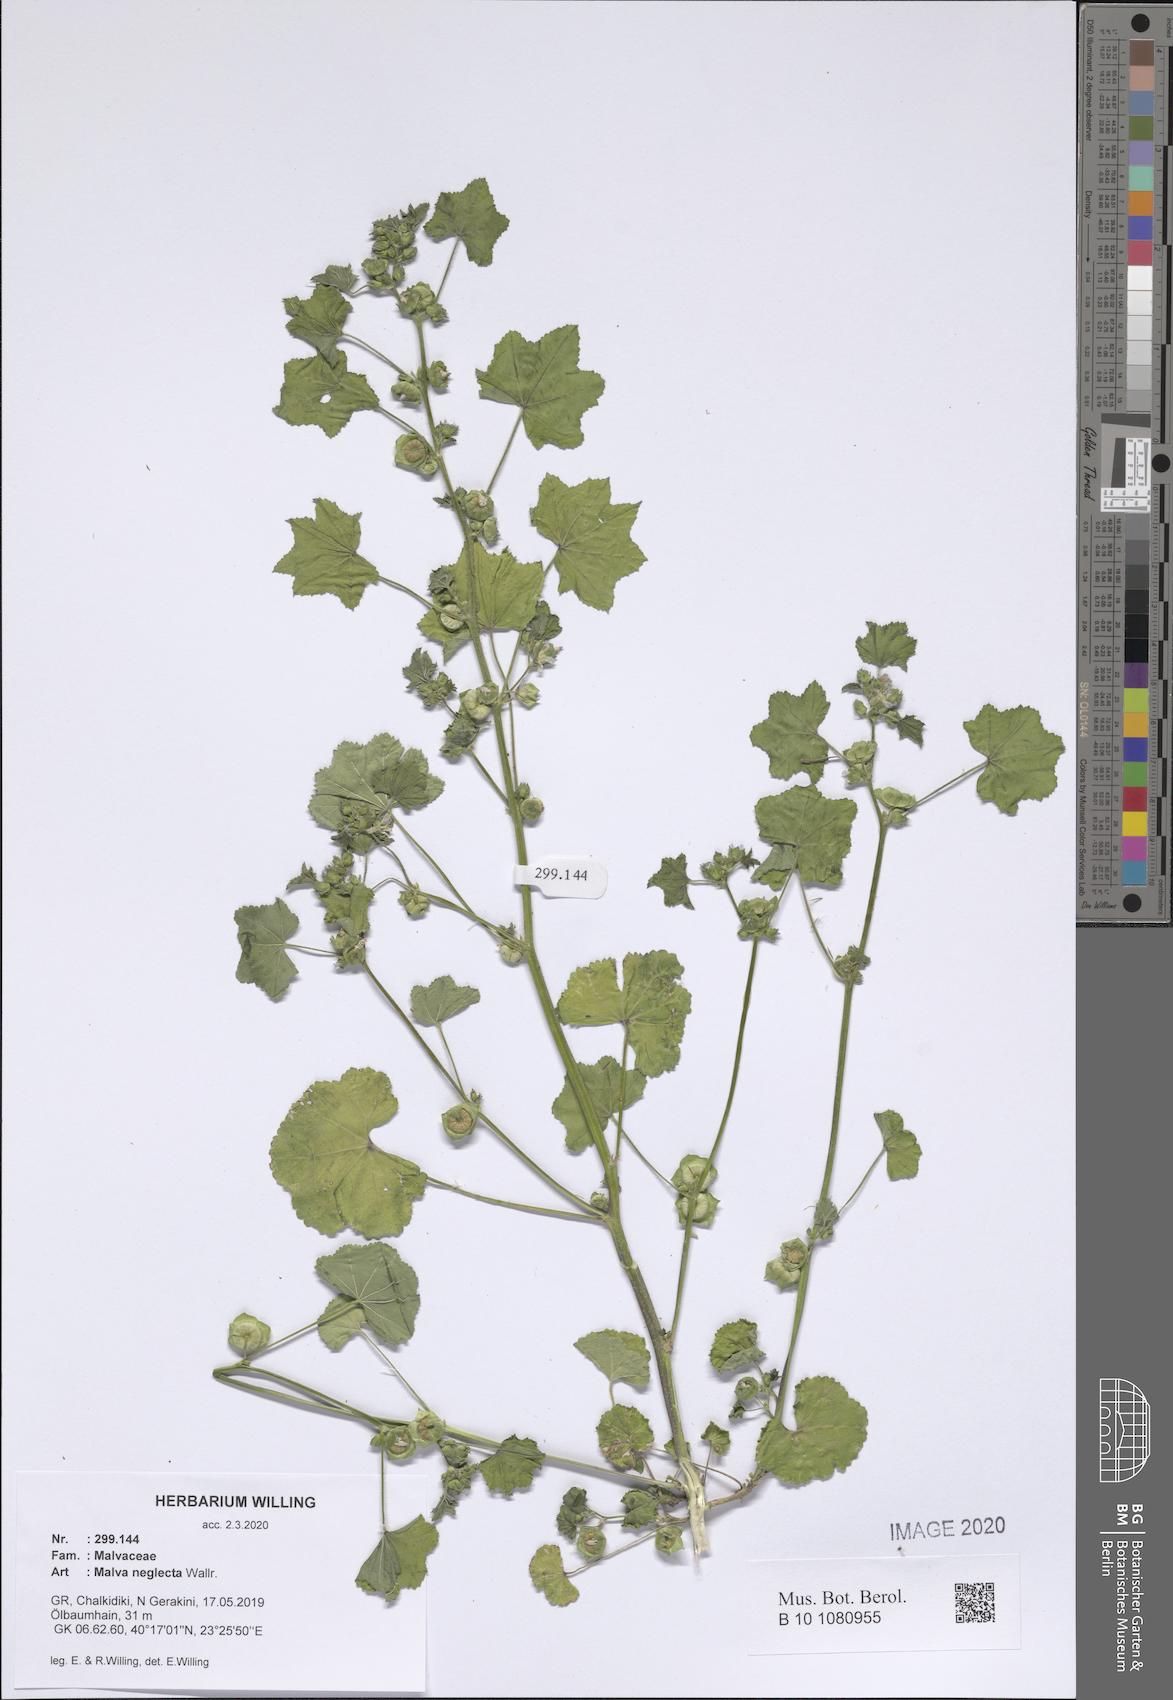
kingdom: Plantae
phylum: Tracheophyta
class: Magnoliopsida
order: Malvales
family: Malvaceae
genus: Malva
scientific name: Malva neglecta
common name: Common mallow
